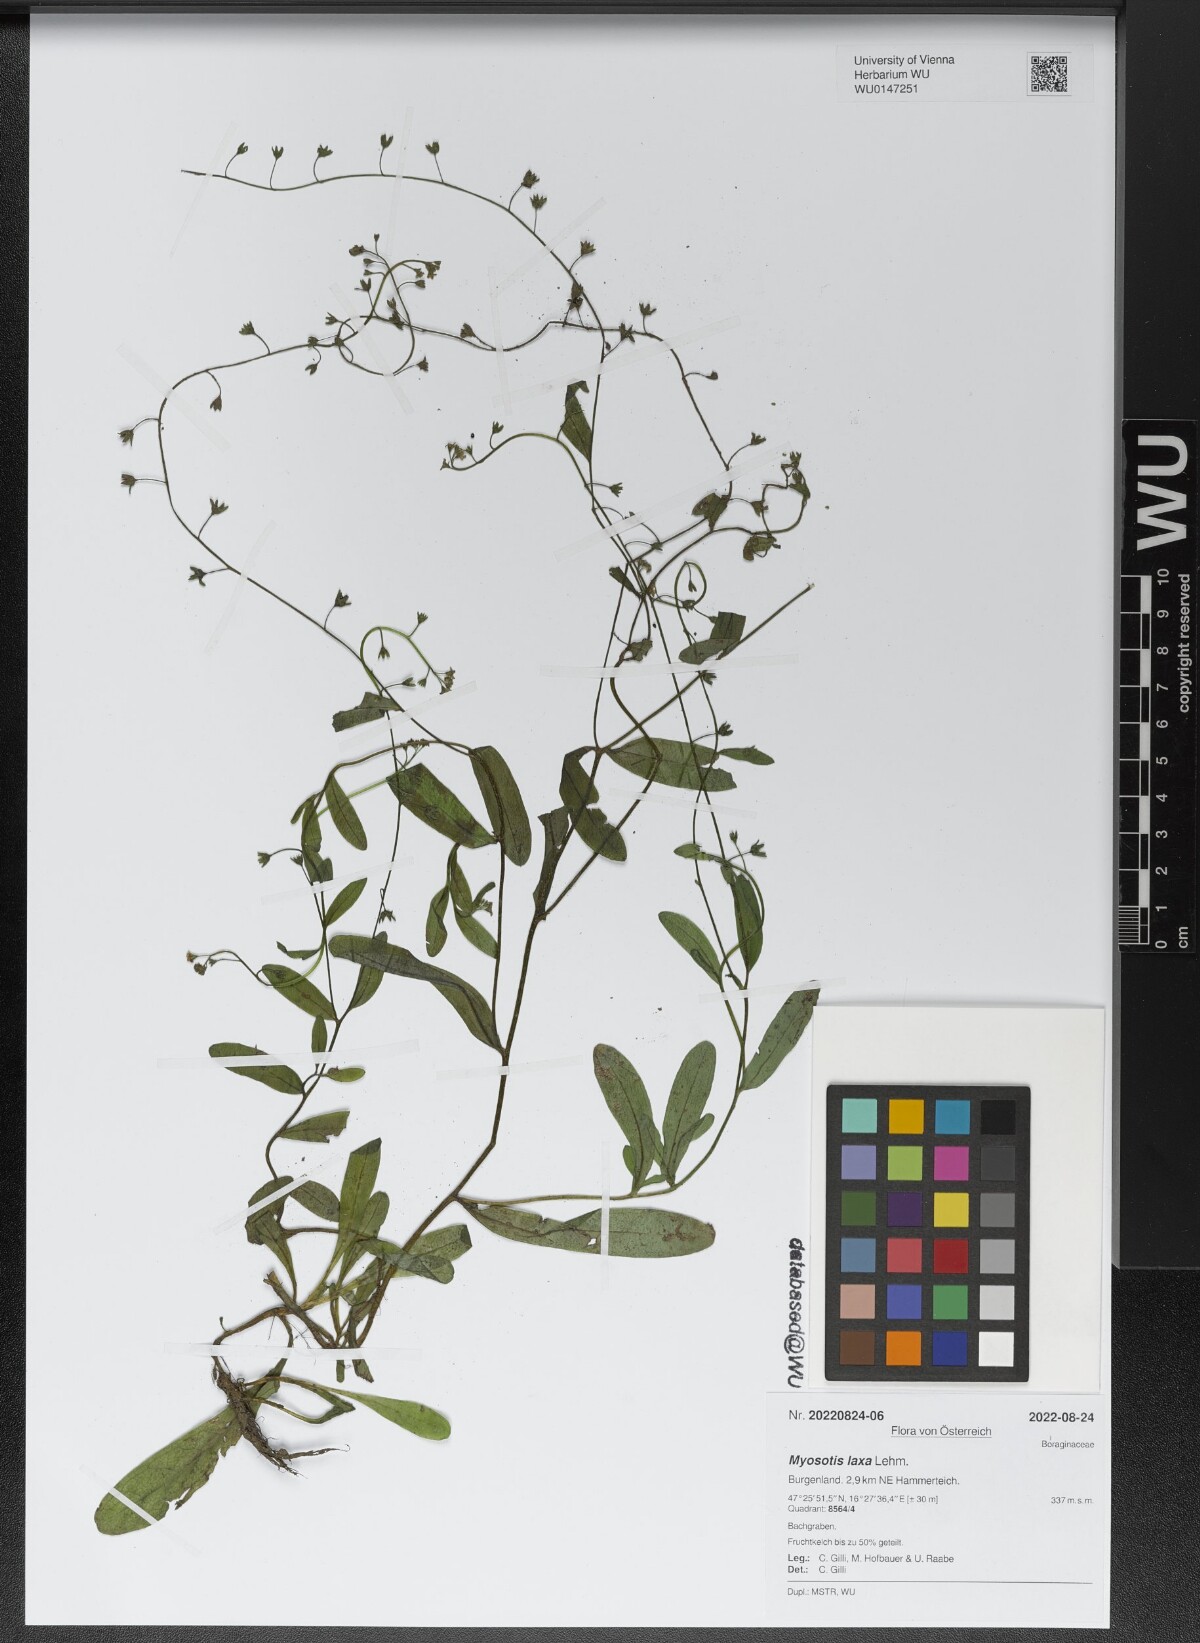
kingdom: Plantae
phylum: Tracheophyta
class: Magnoliopsida
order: Boraginales
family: Boraginaceae
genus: Myosotis
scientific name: Myosotis laxa
